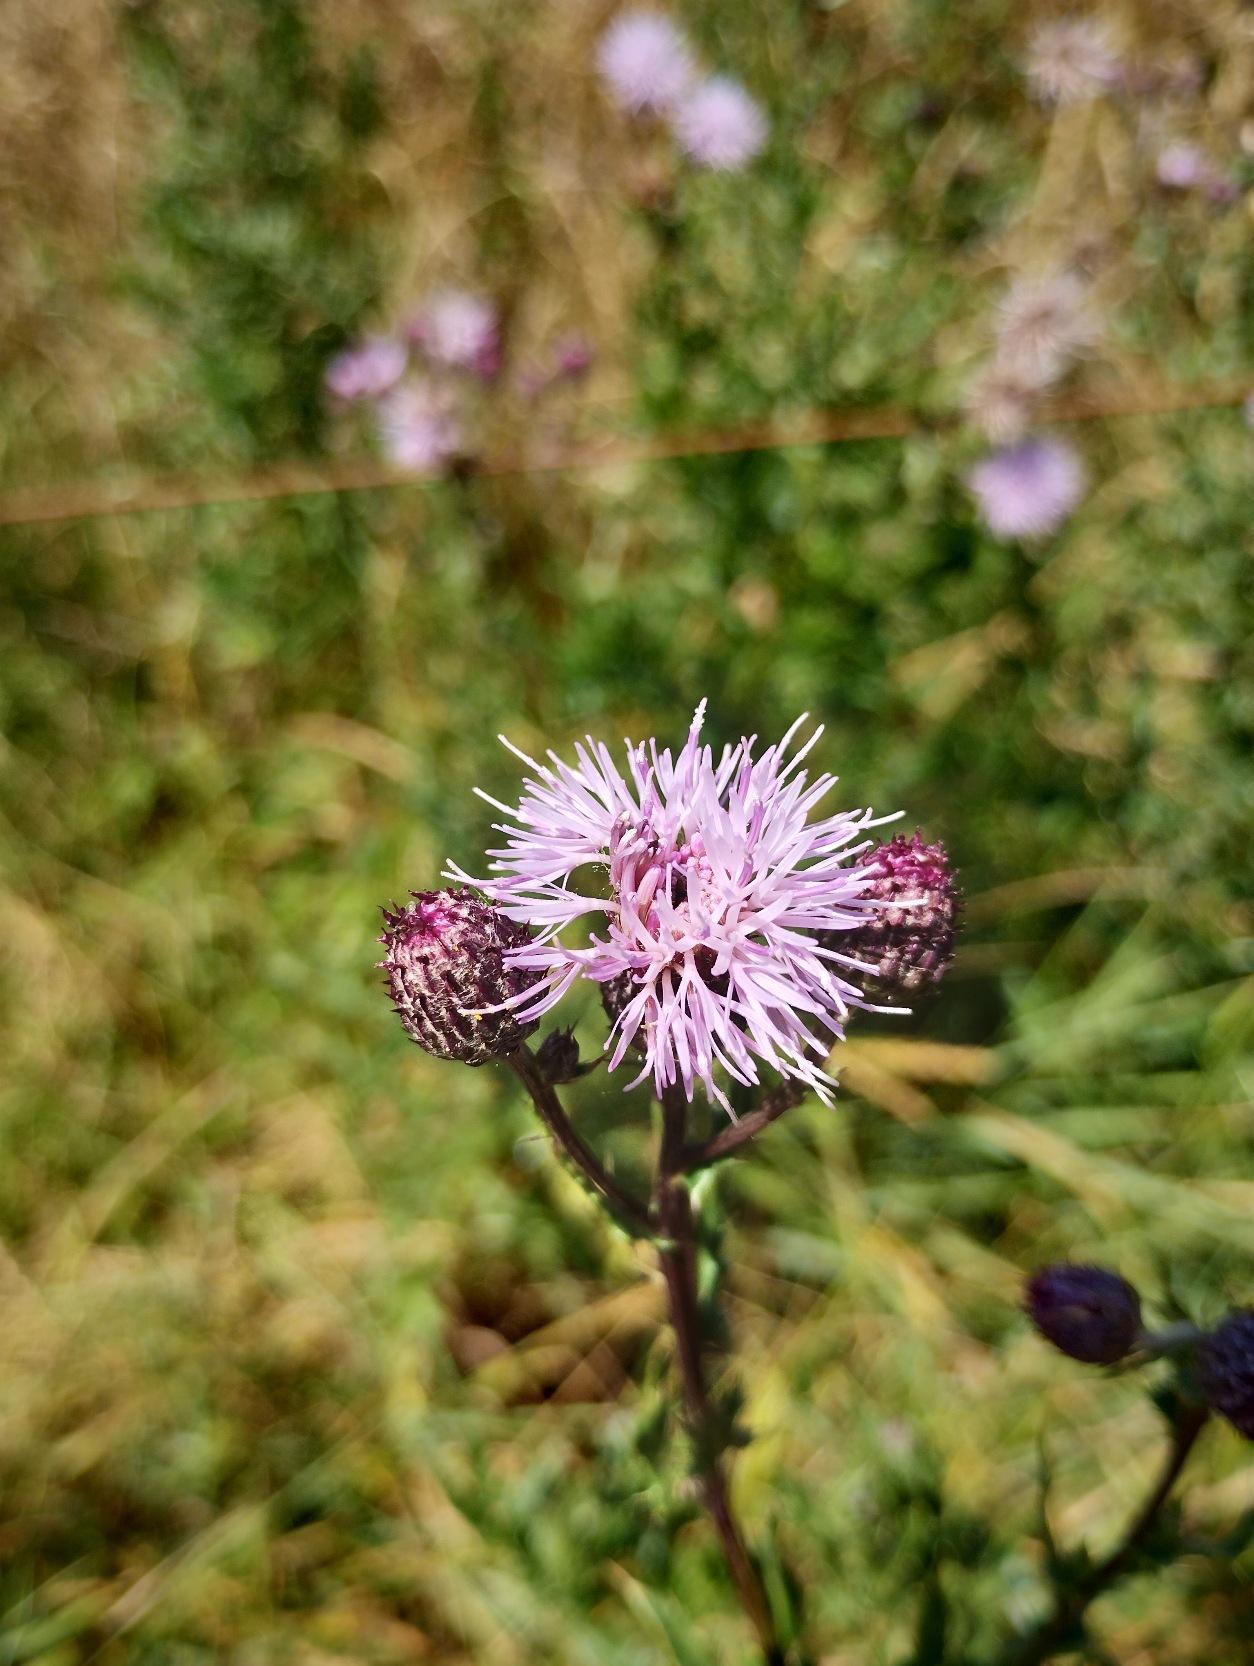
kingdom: Plantae
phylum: Tracheophyta
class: Magnoliopsida
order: Asterales
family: Asteraceae
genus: Cirsium
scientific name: Cirsium arvense
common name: Ager-tidsel
